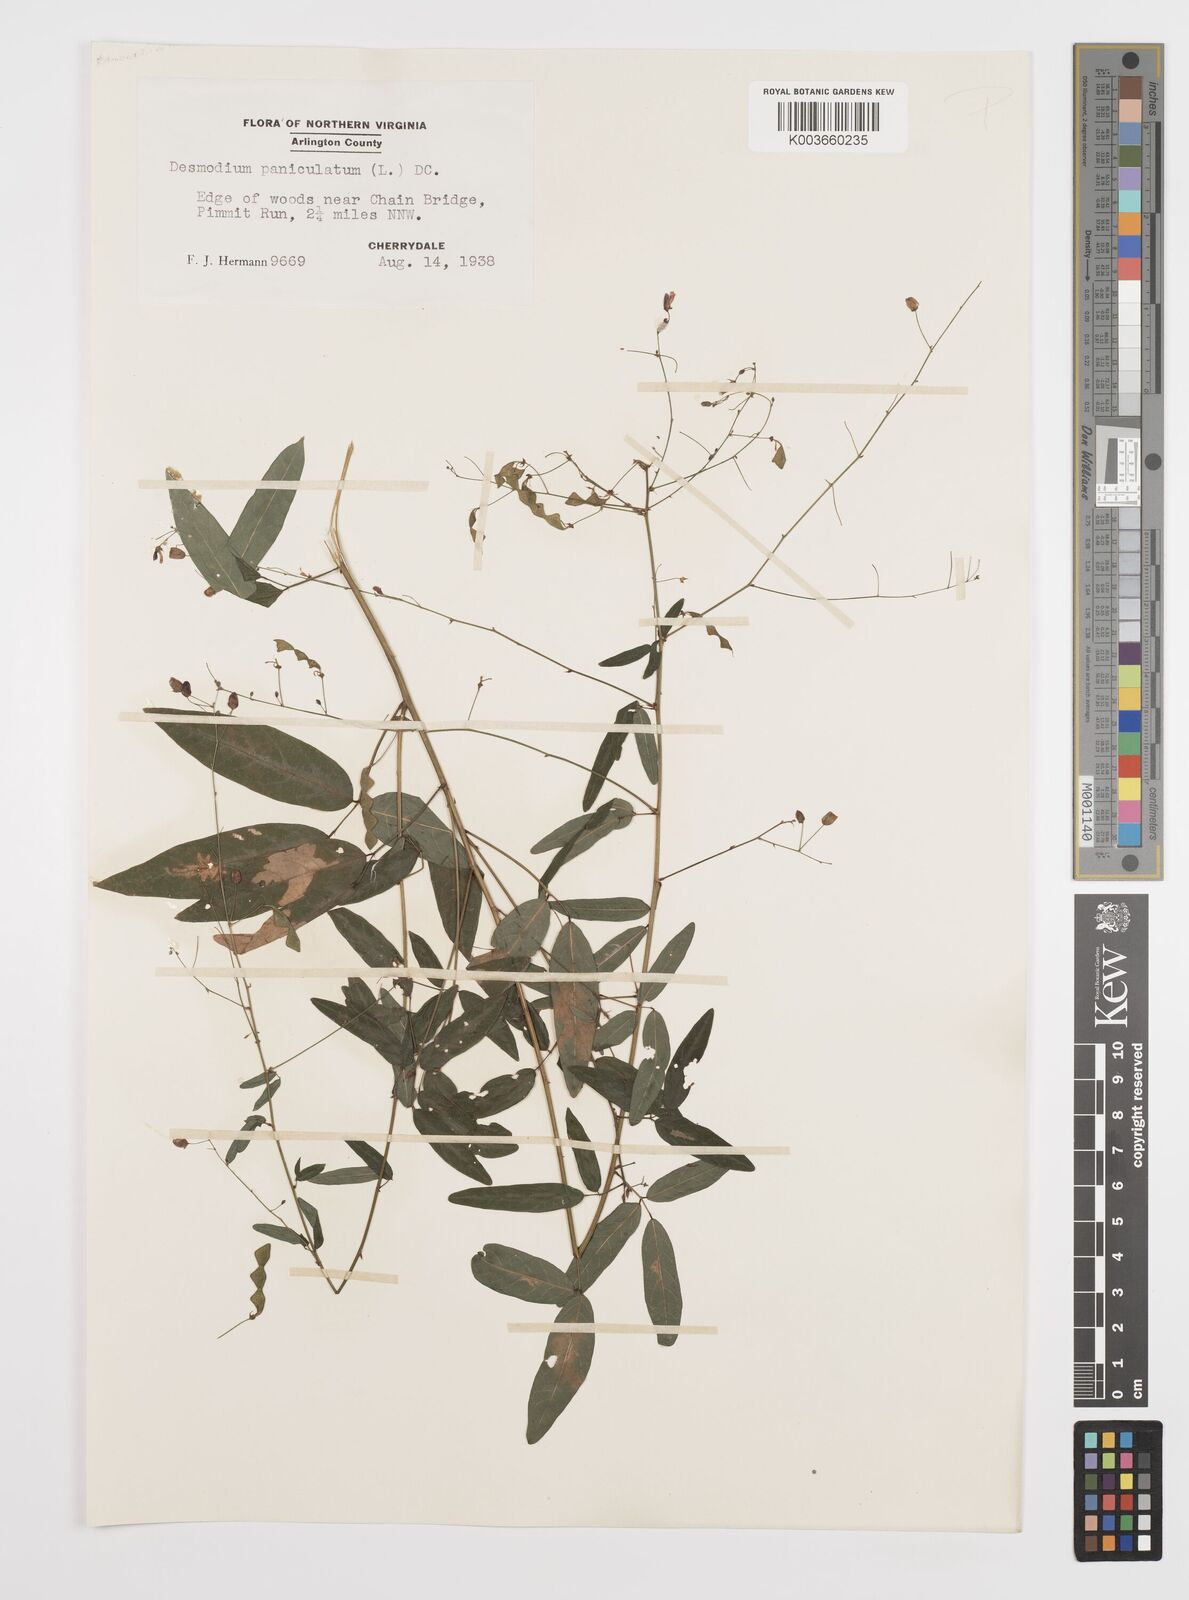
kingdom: Plantae
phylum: Tracheophyta
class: Magnoliopsida
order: Fabales
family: Fabaceae
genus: Desmodium
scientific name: Desmodium paniculatum
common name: Panicled tick-clover
